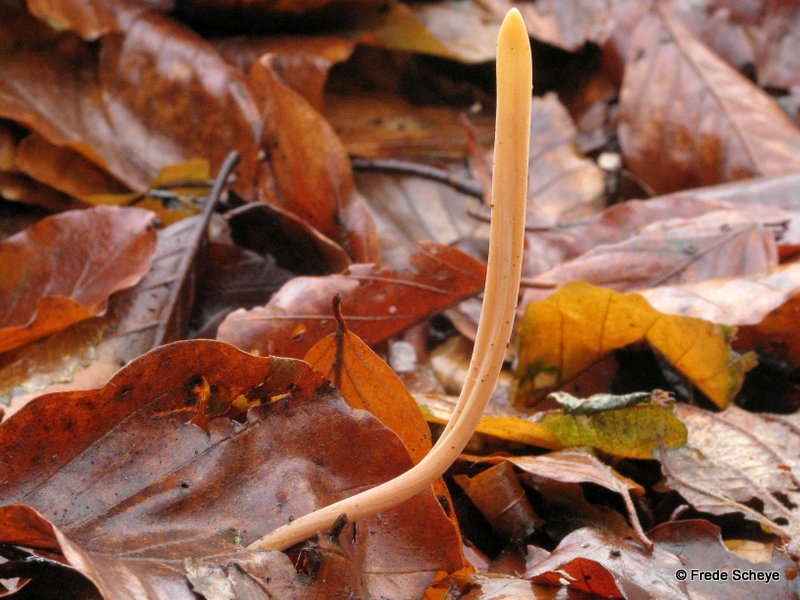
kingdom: Fungi
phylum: Basidiomycota
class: Agaricomycetes
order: Agaricales
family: Typhulaceae
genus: Typhula
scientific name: Typhula fistulosa
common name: pibet rørkølle
